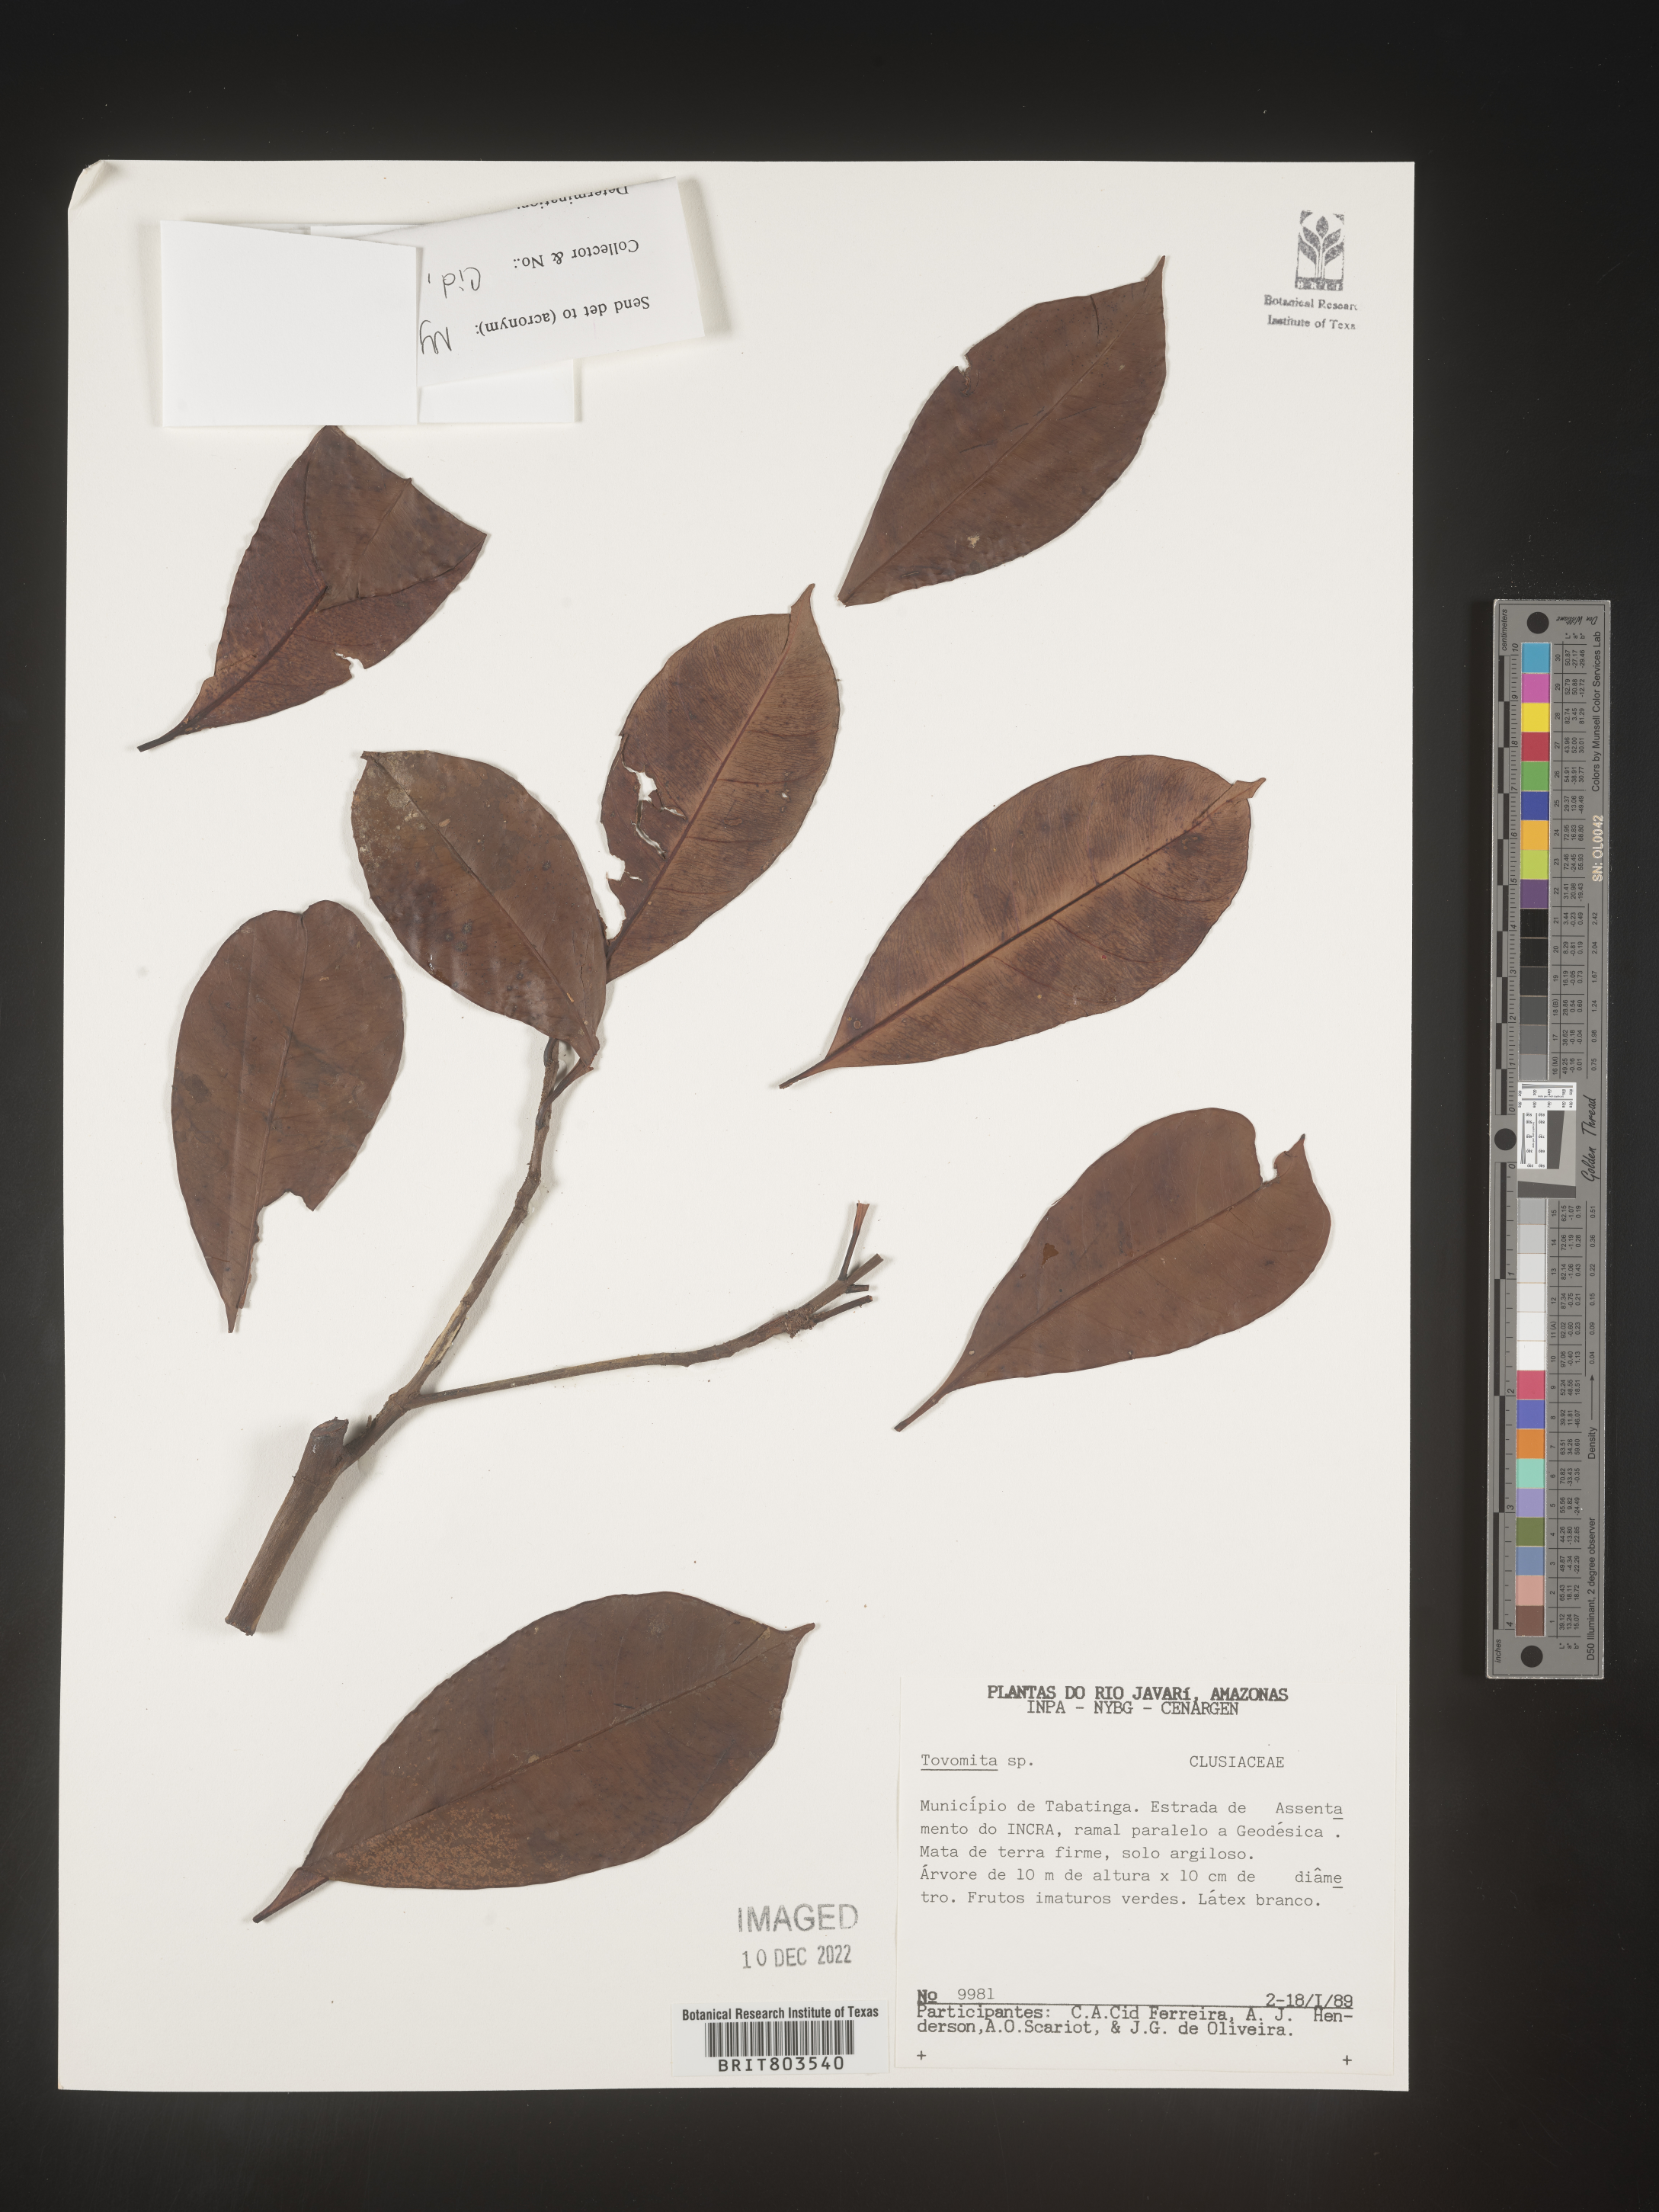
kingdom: Plantae
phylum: Tracheophyta
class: Magnoliopsida
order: Malpighiales
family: Clusiaceae
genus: Tovomita
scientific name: Tovomita
